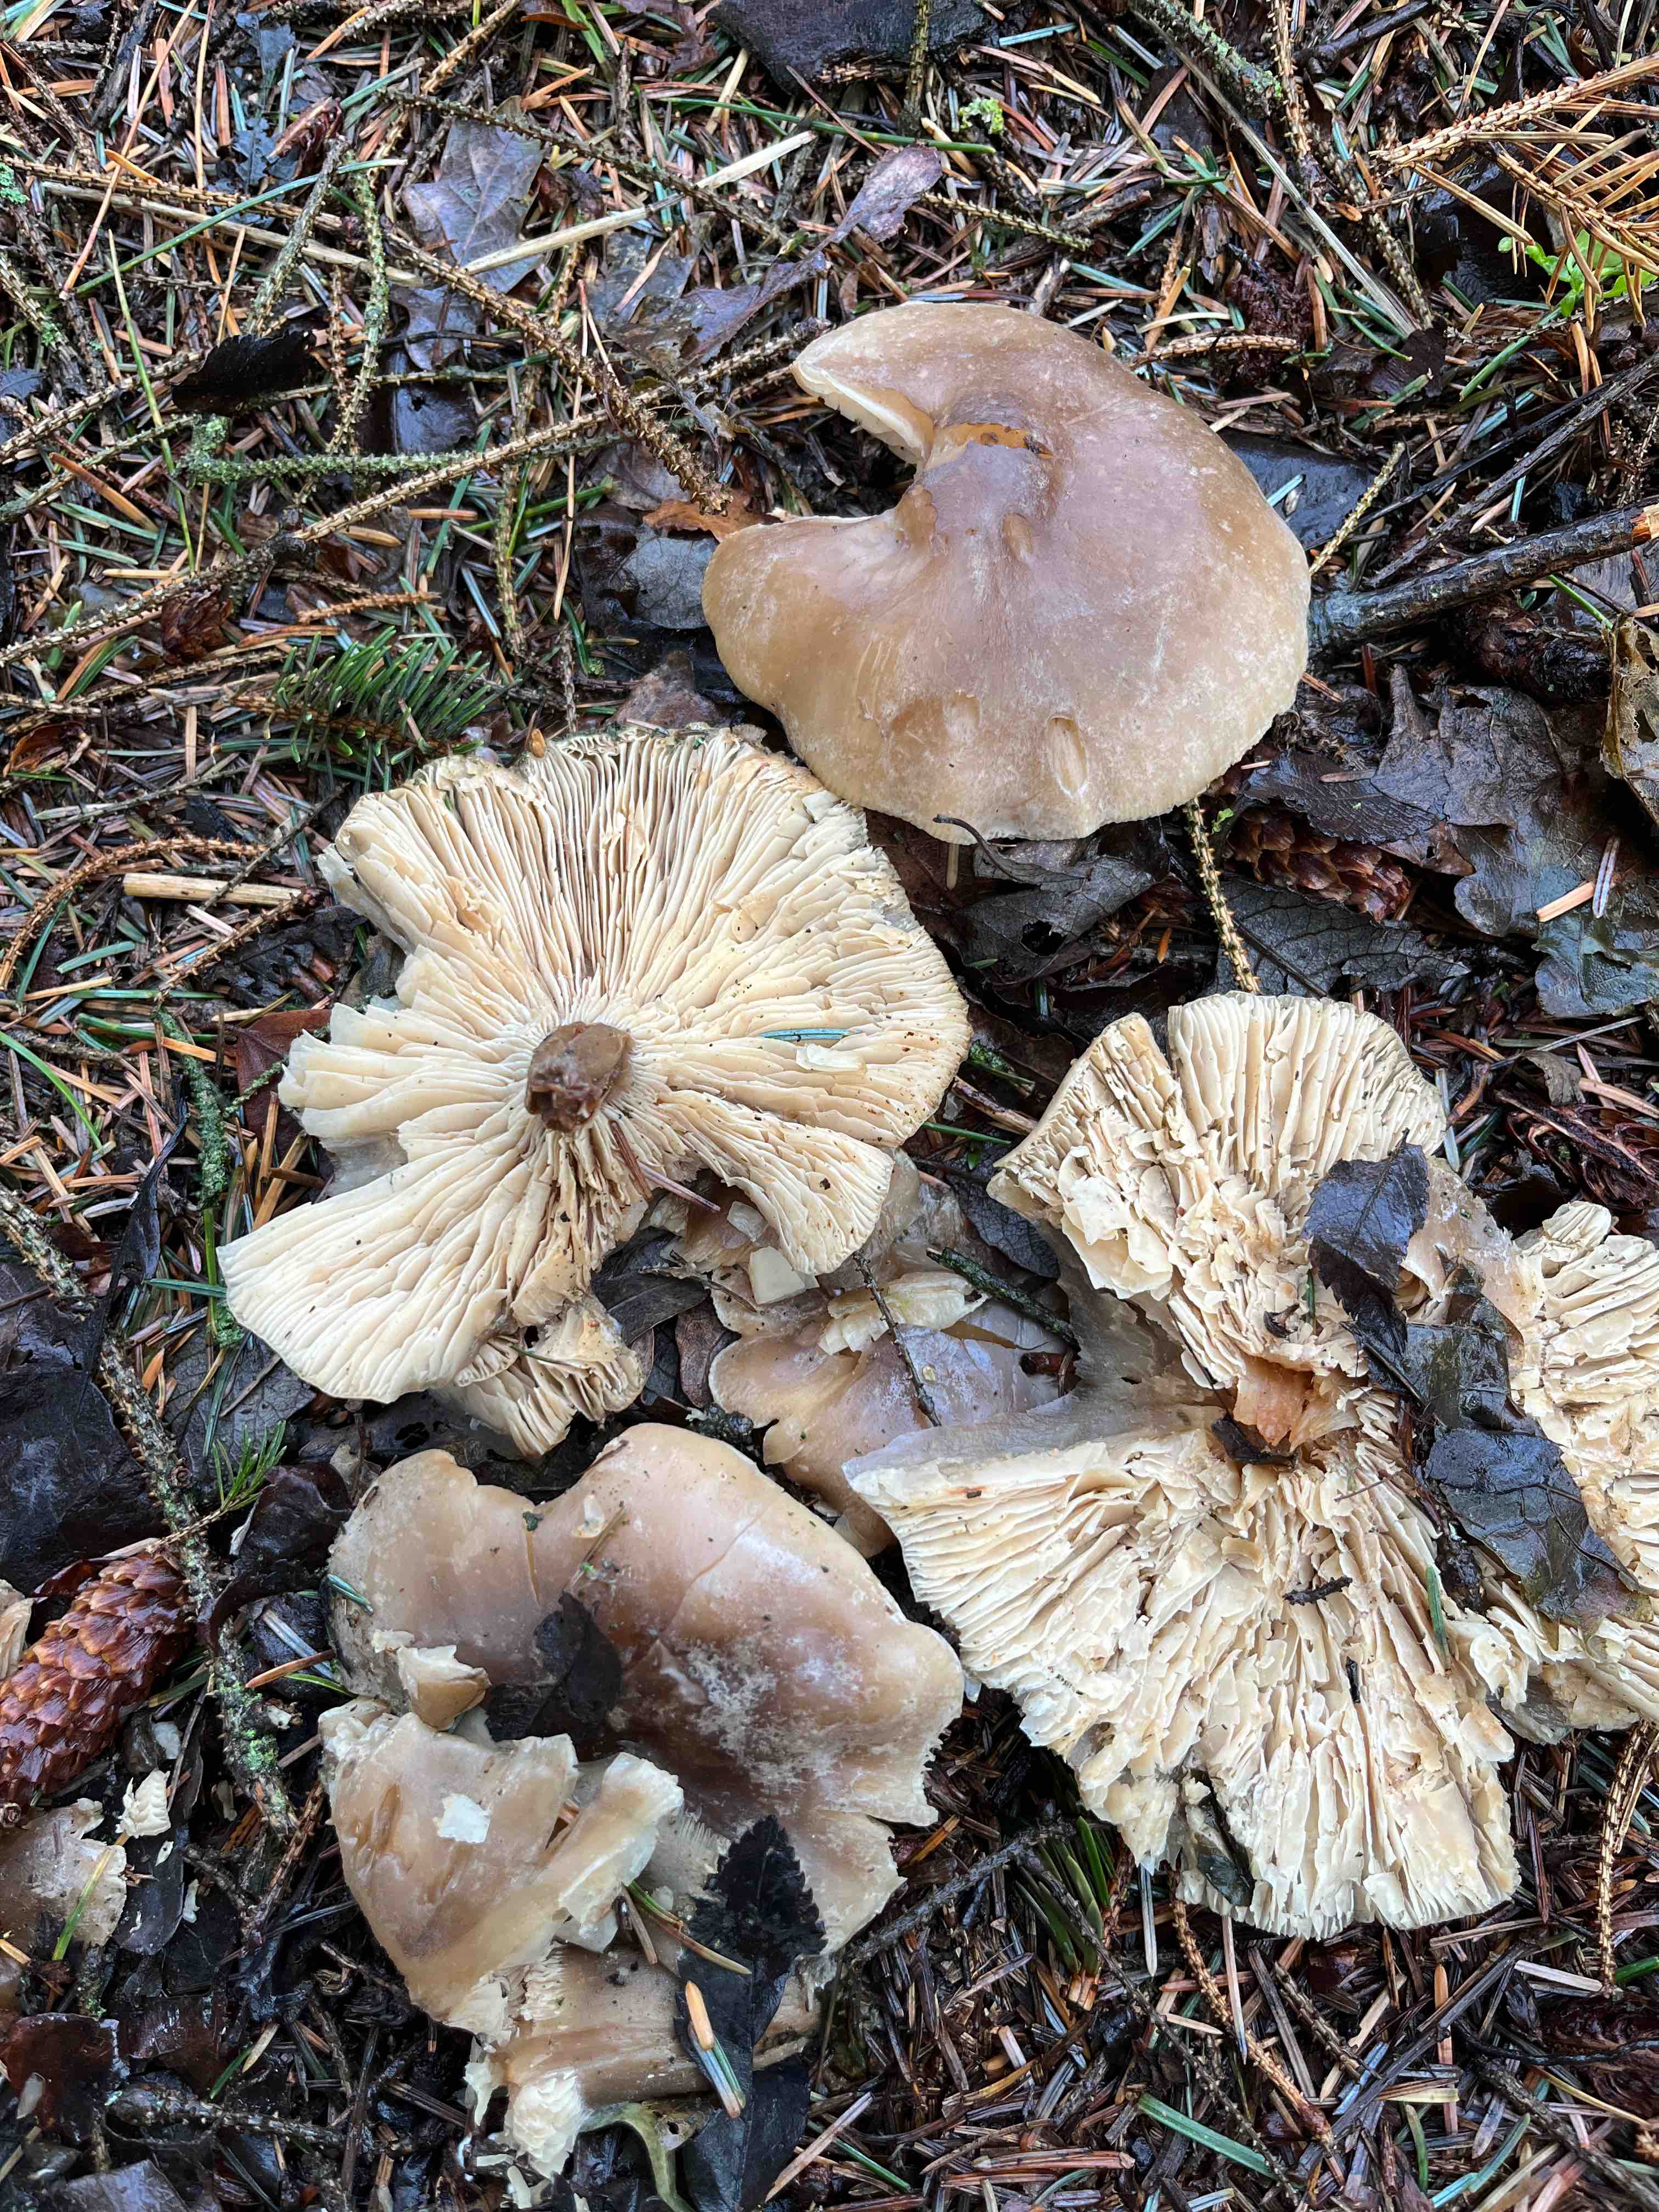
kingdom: Fungi
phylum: Basidiomycota
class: Agaricomycetes
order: Agaricales
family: Tricholomataceae
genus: Clitocybe
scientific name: Clitocybe nebularis
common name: tåge-tragthat
